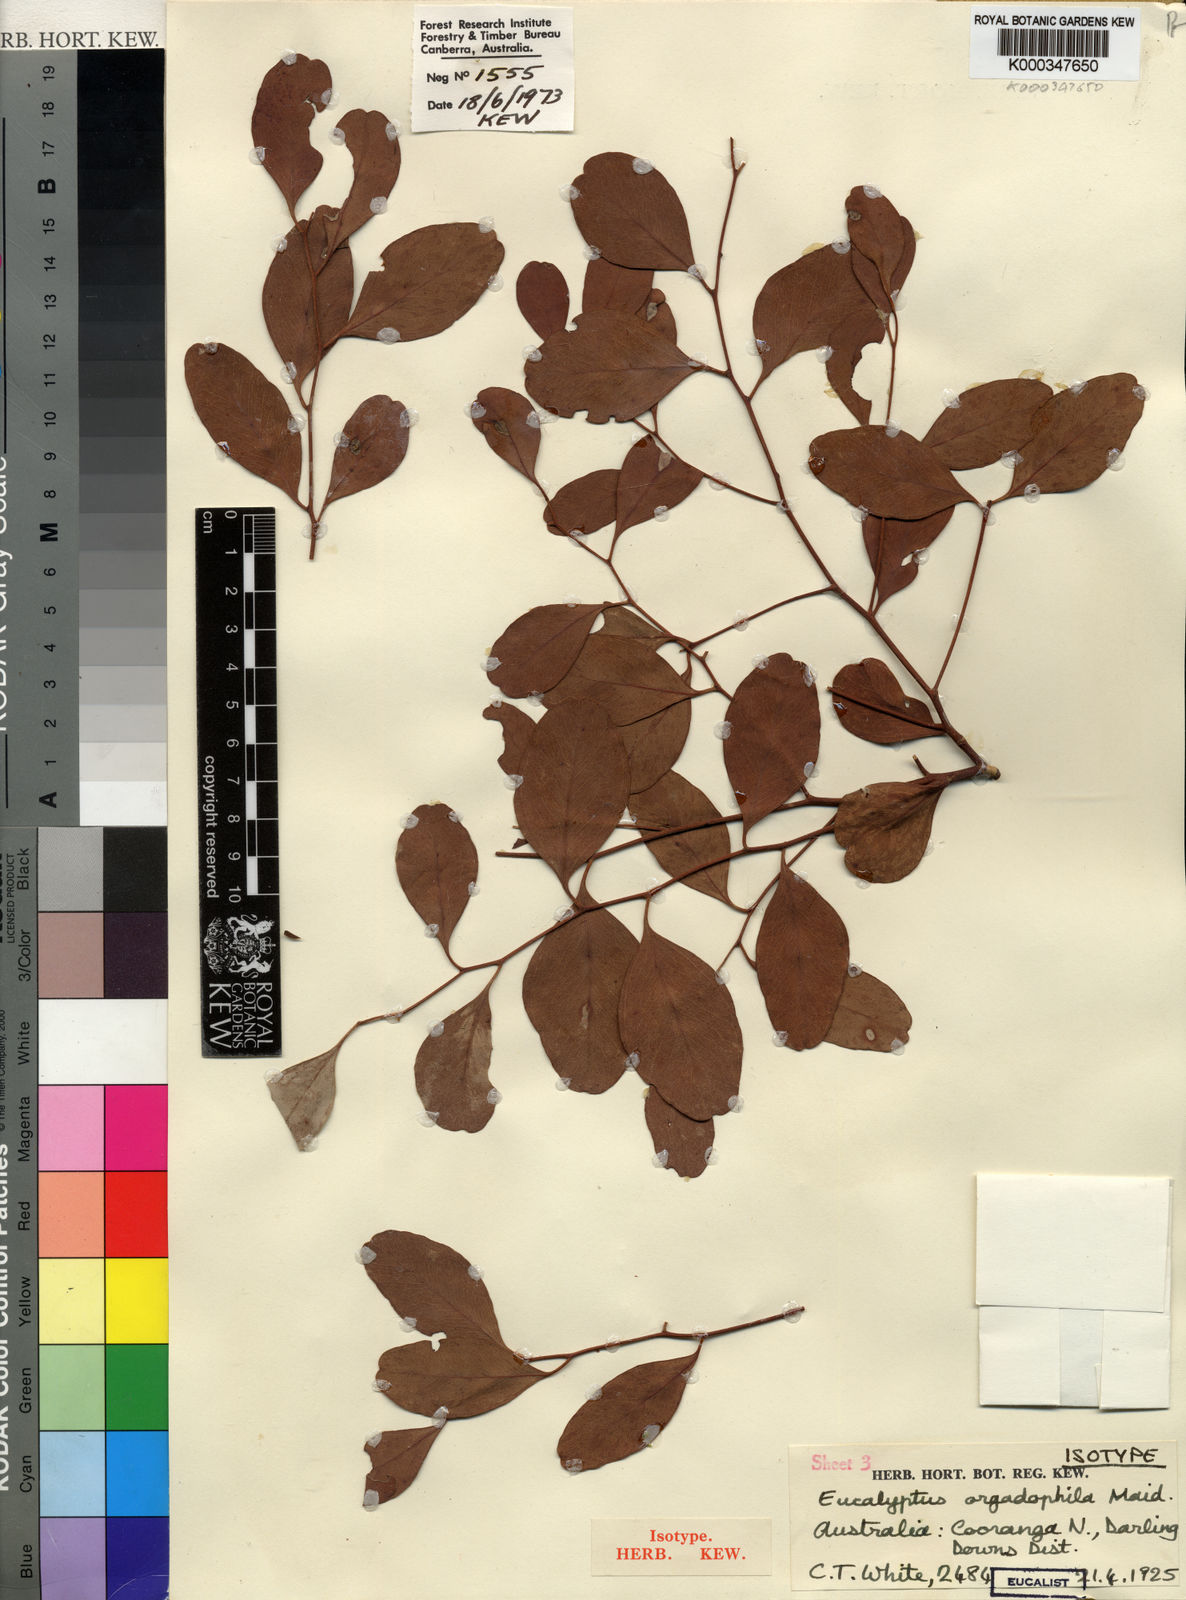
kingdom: Plantae
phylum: Tracheophyta
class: Magnoliopsida
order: Myrtales
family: Myrtaceae
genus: Eucalyptus
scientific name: Eucalyptus orgadophila
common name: Mountain coolibah
